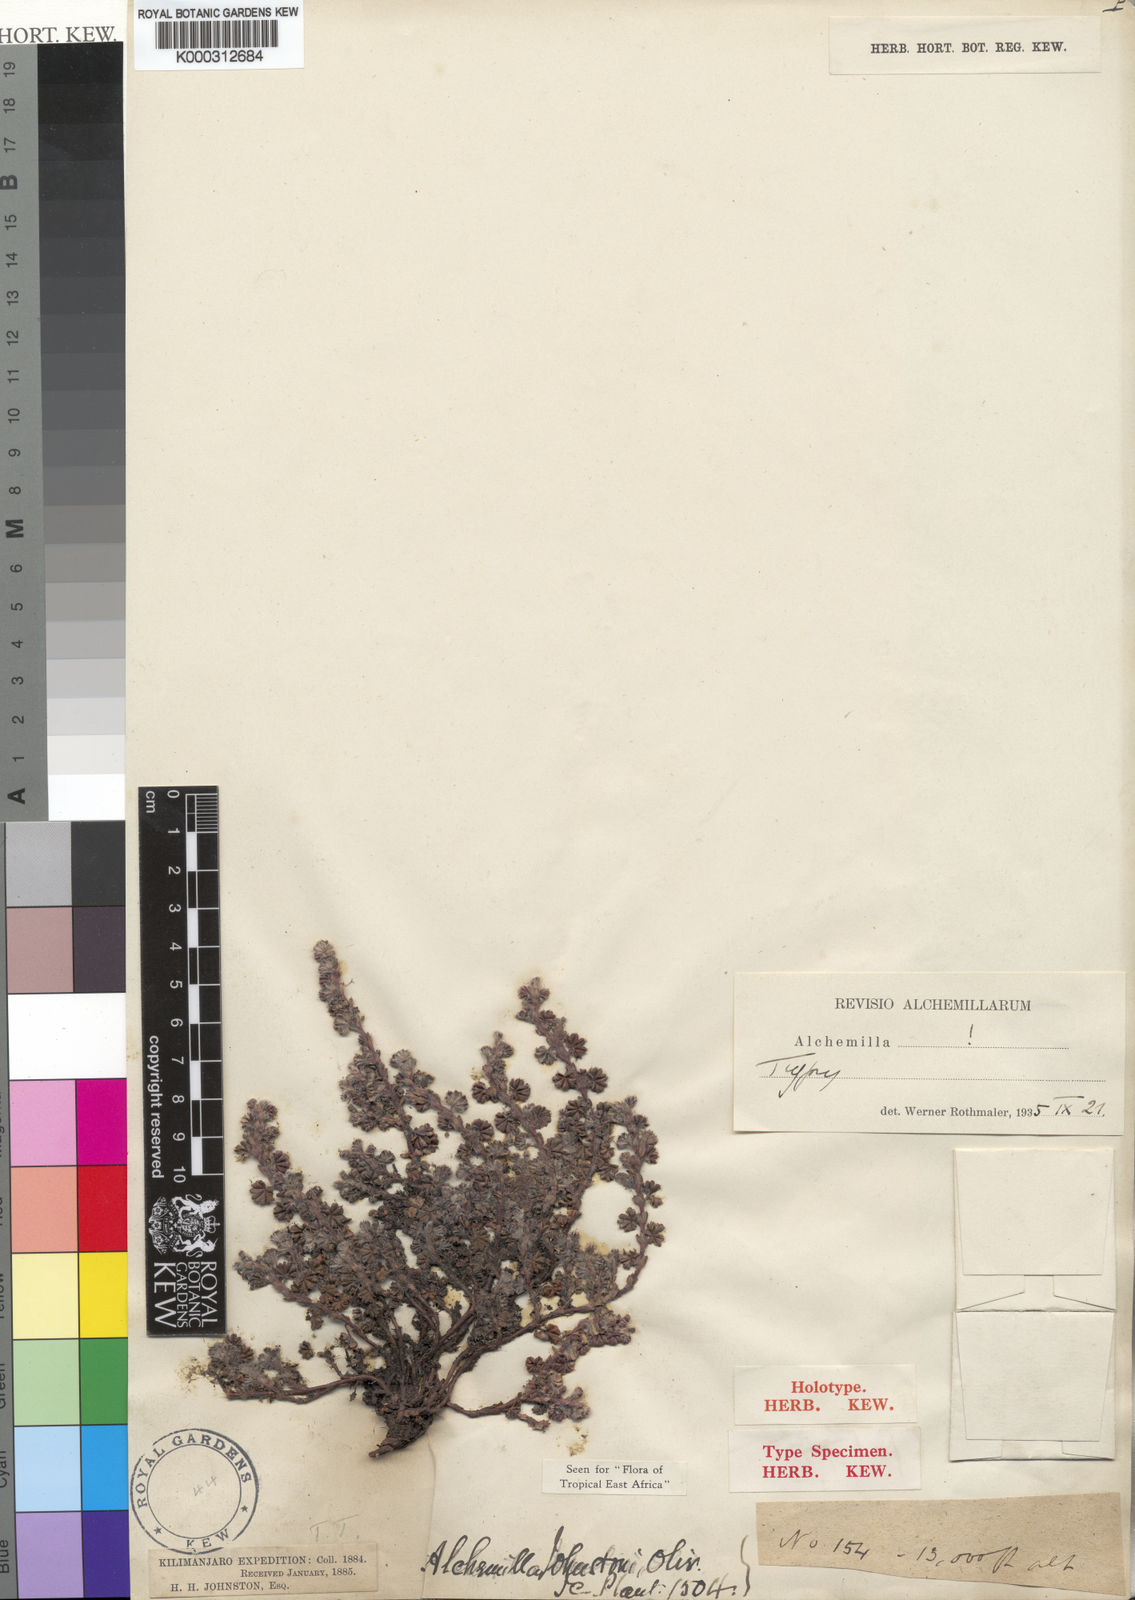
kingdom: Plantae
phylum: Tracheophyta
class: Magnoliopsida
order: Rosales
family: Rosaceae
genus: Alchemilla
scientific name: Alchemilla johnstonii
